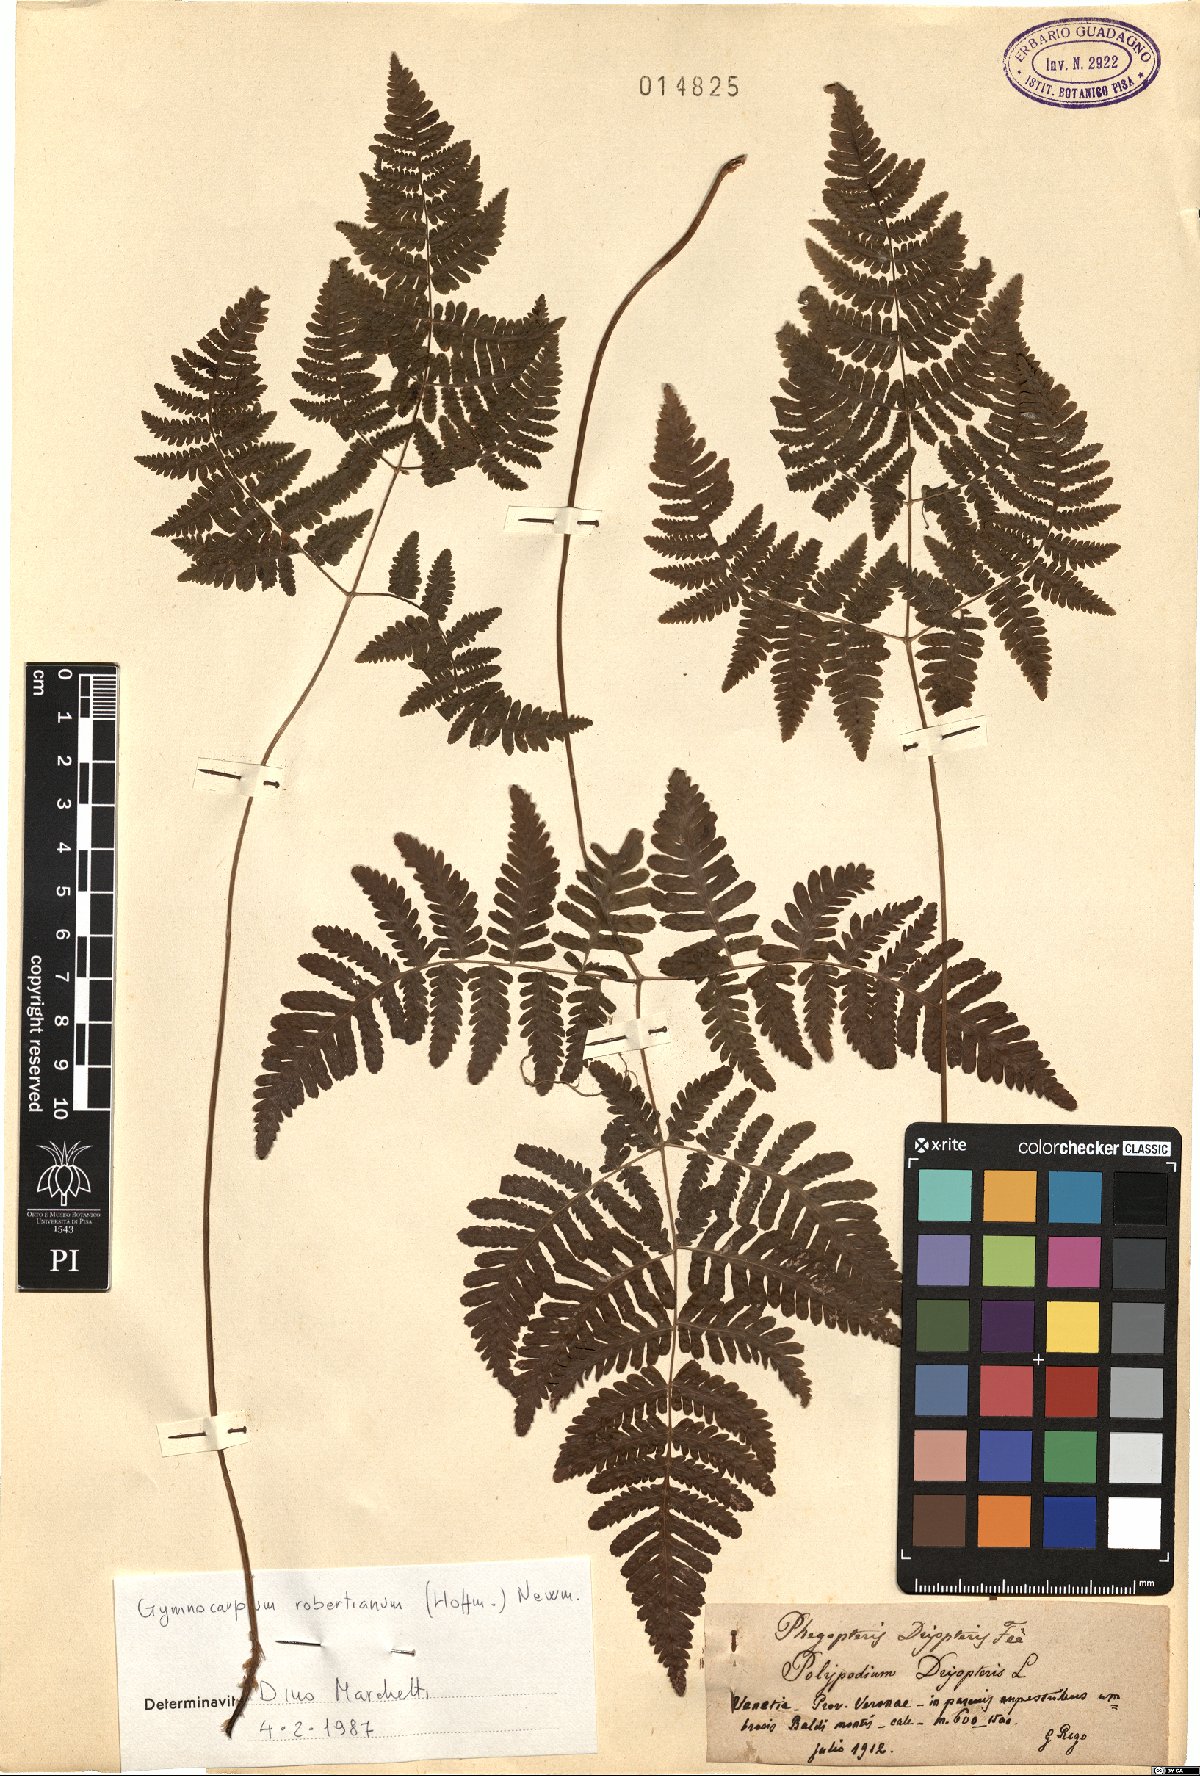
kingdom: Plantae
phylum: Tracheophyta
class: Polypodiopsida
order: Polypodiales
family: Cystopteridaceae
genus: Gymnocarpium
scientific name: Gymnocarpium robertianum
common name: Limestone fern
